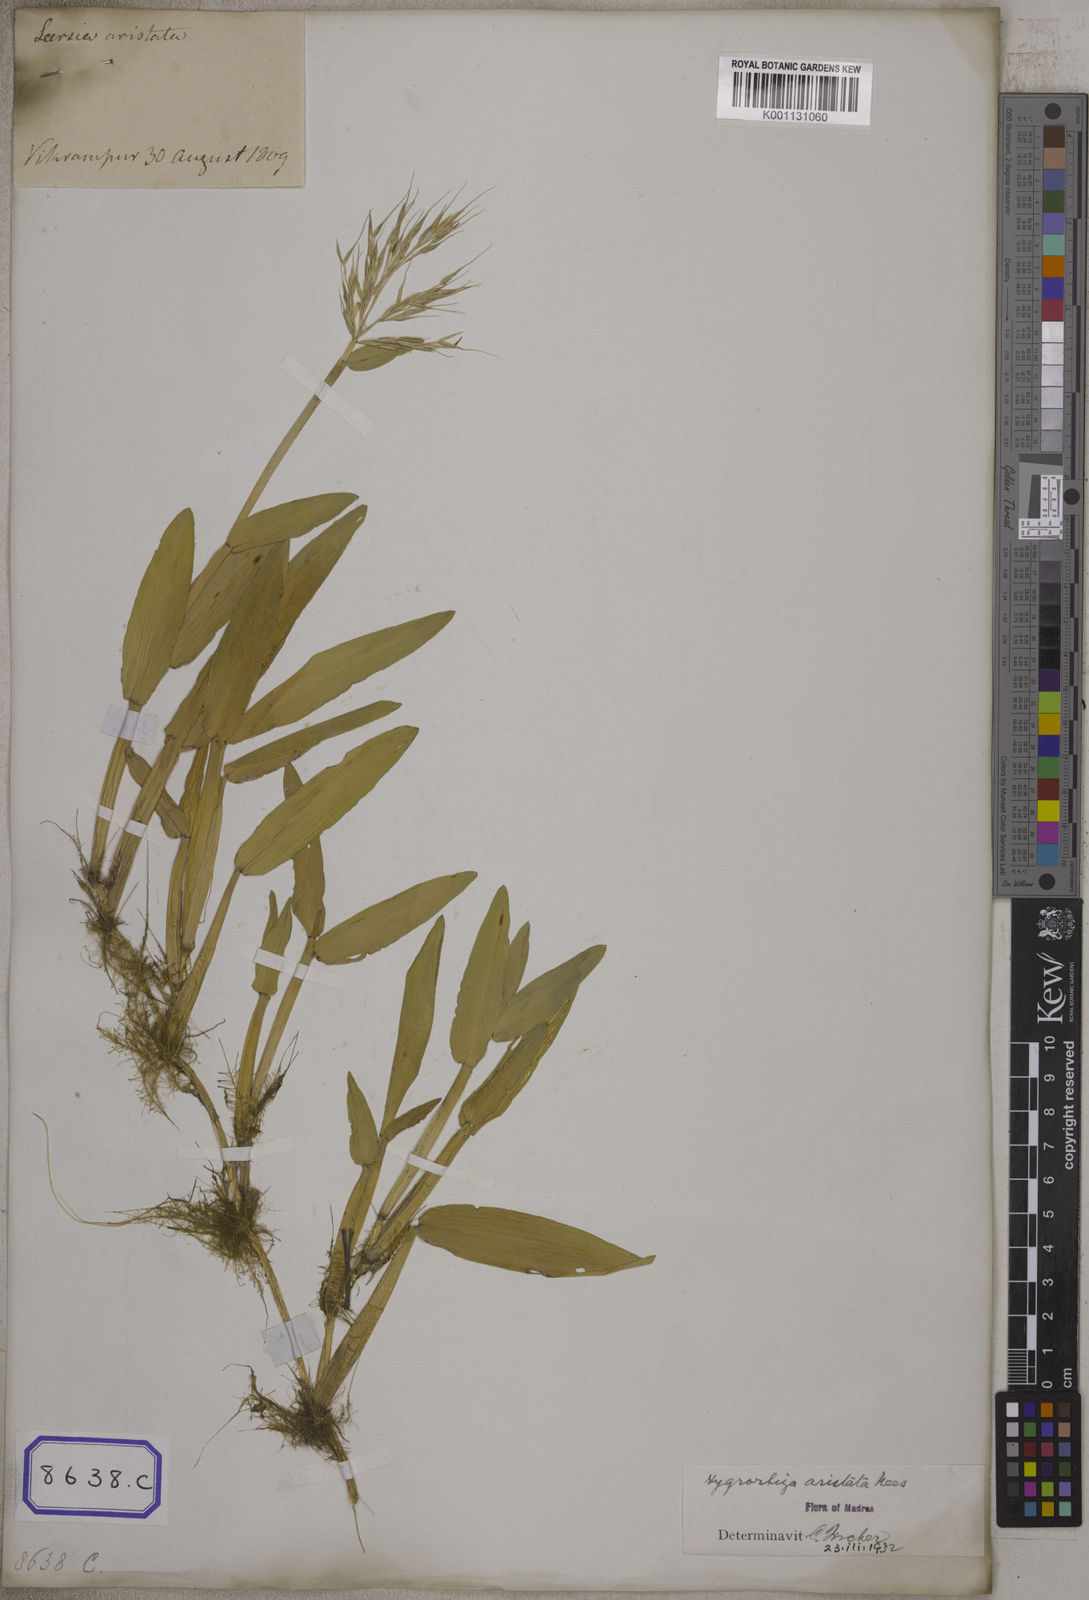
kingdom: Plantae
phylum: Tracheophyta
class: Liliopsida
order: Poales
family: Poaceae
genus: Hygroryza
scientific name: Hygroryza
